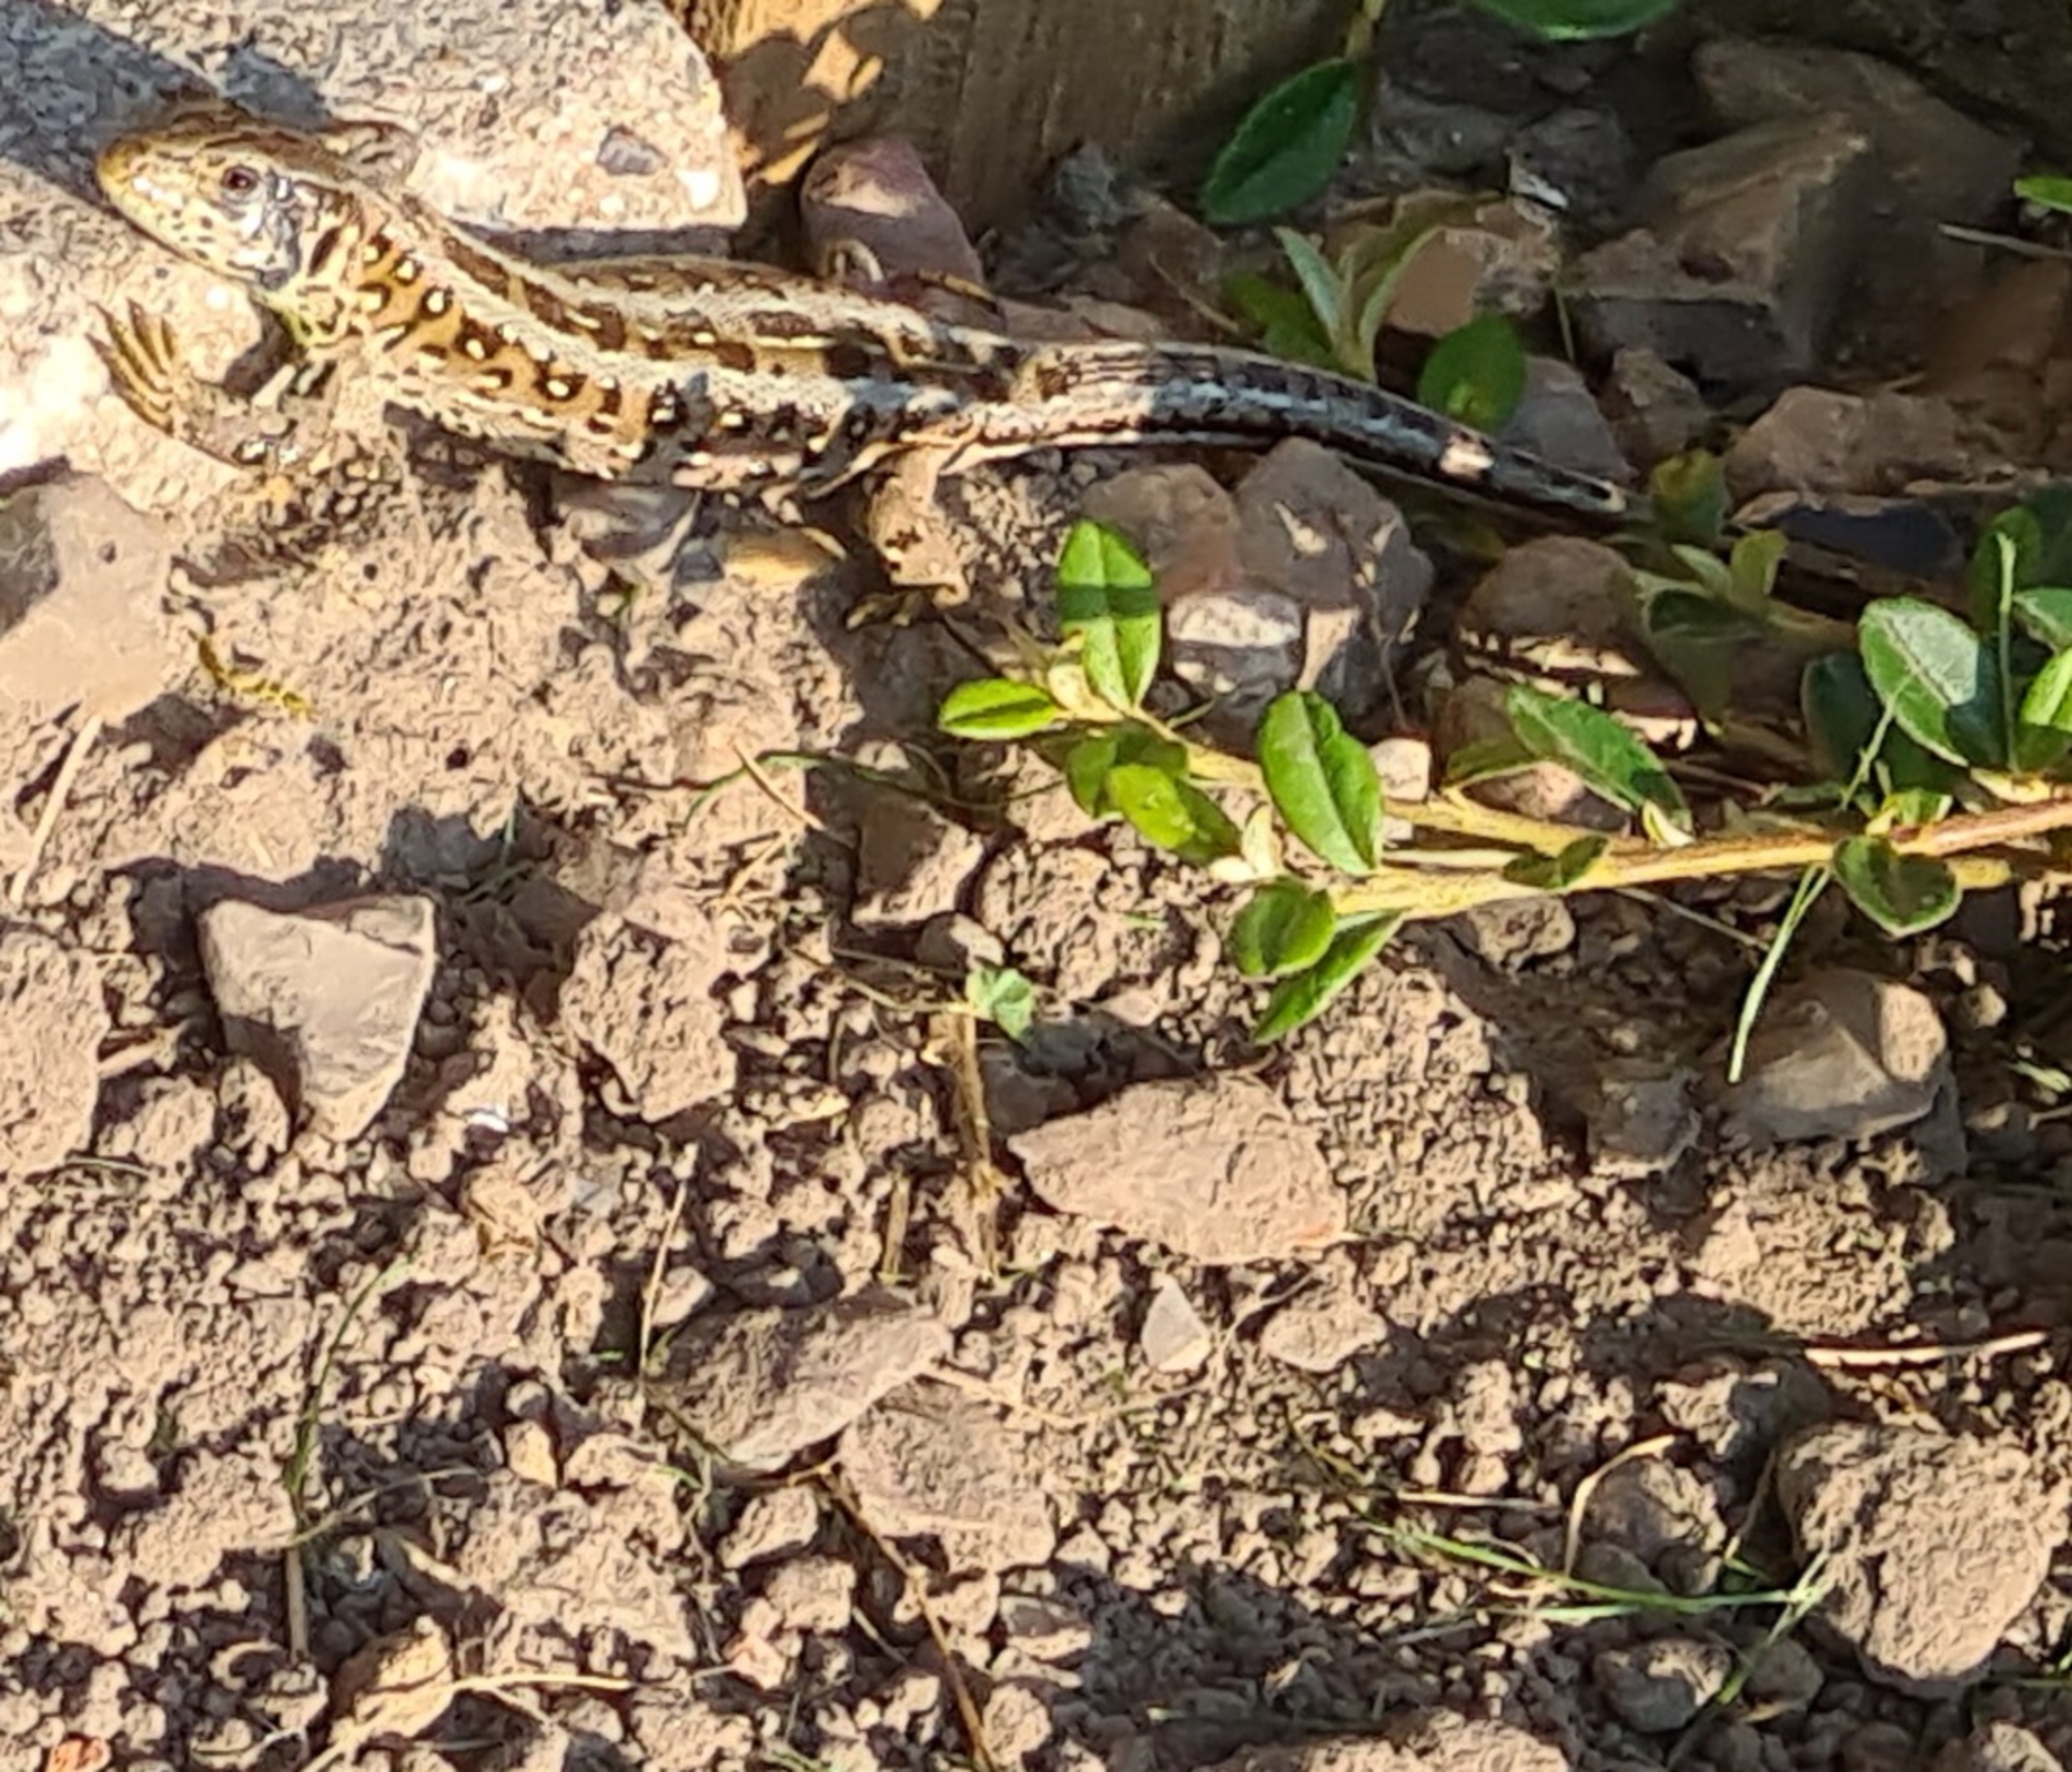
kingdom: Animalia
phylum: Chordata
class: Squamata
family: Lacertidae
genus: Lacerta
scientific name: Lacerta agilis
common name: Markfirben
